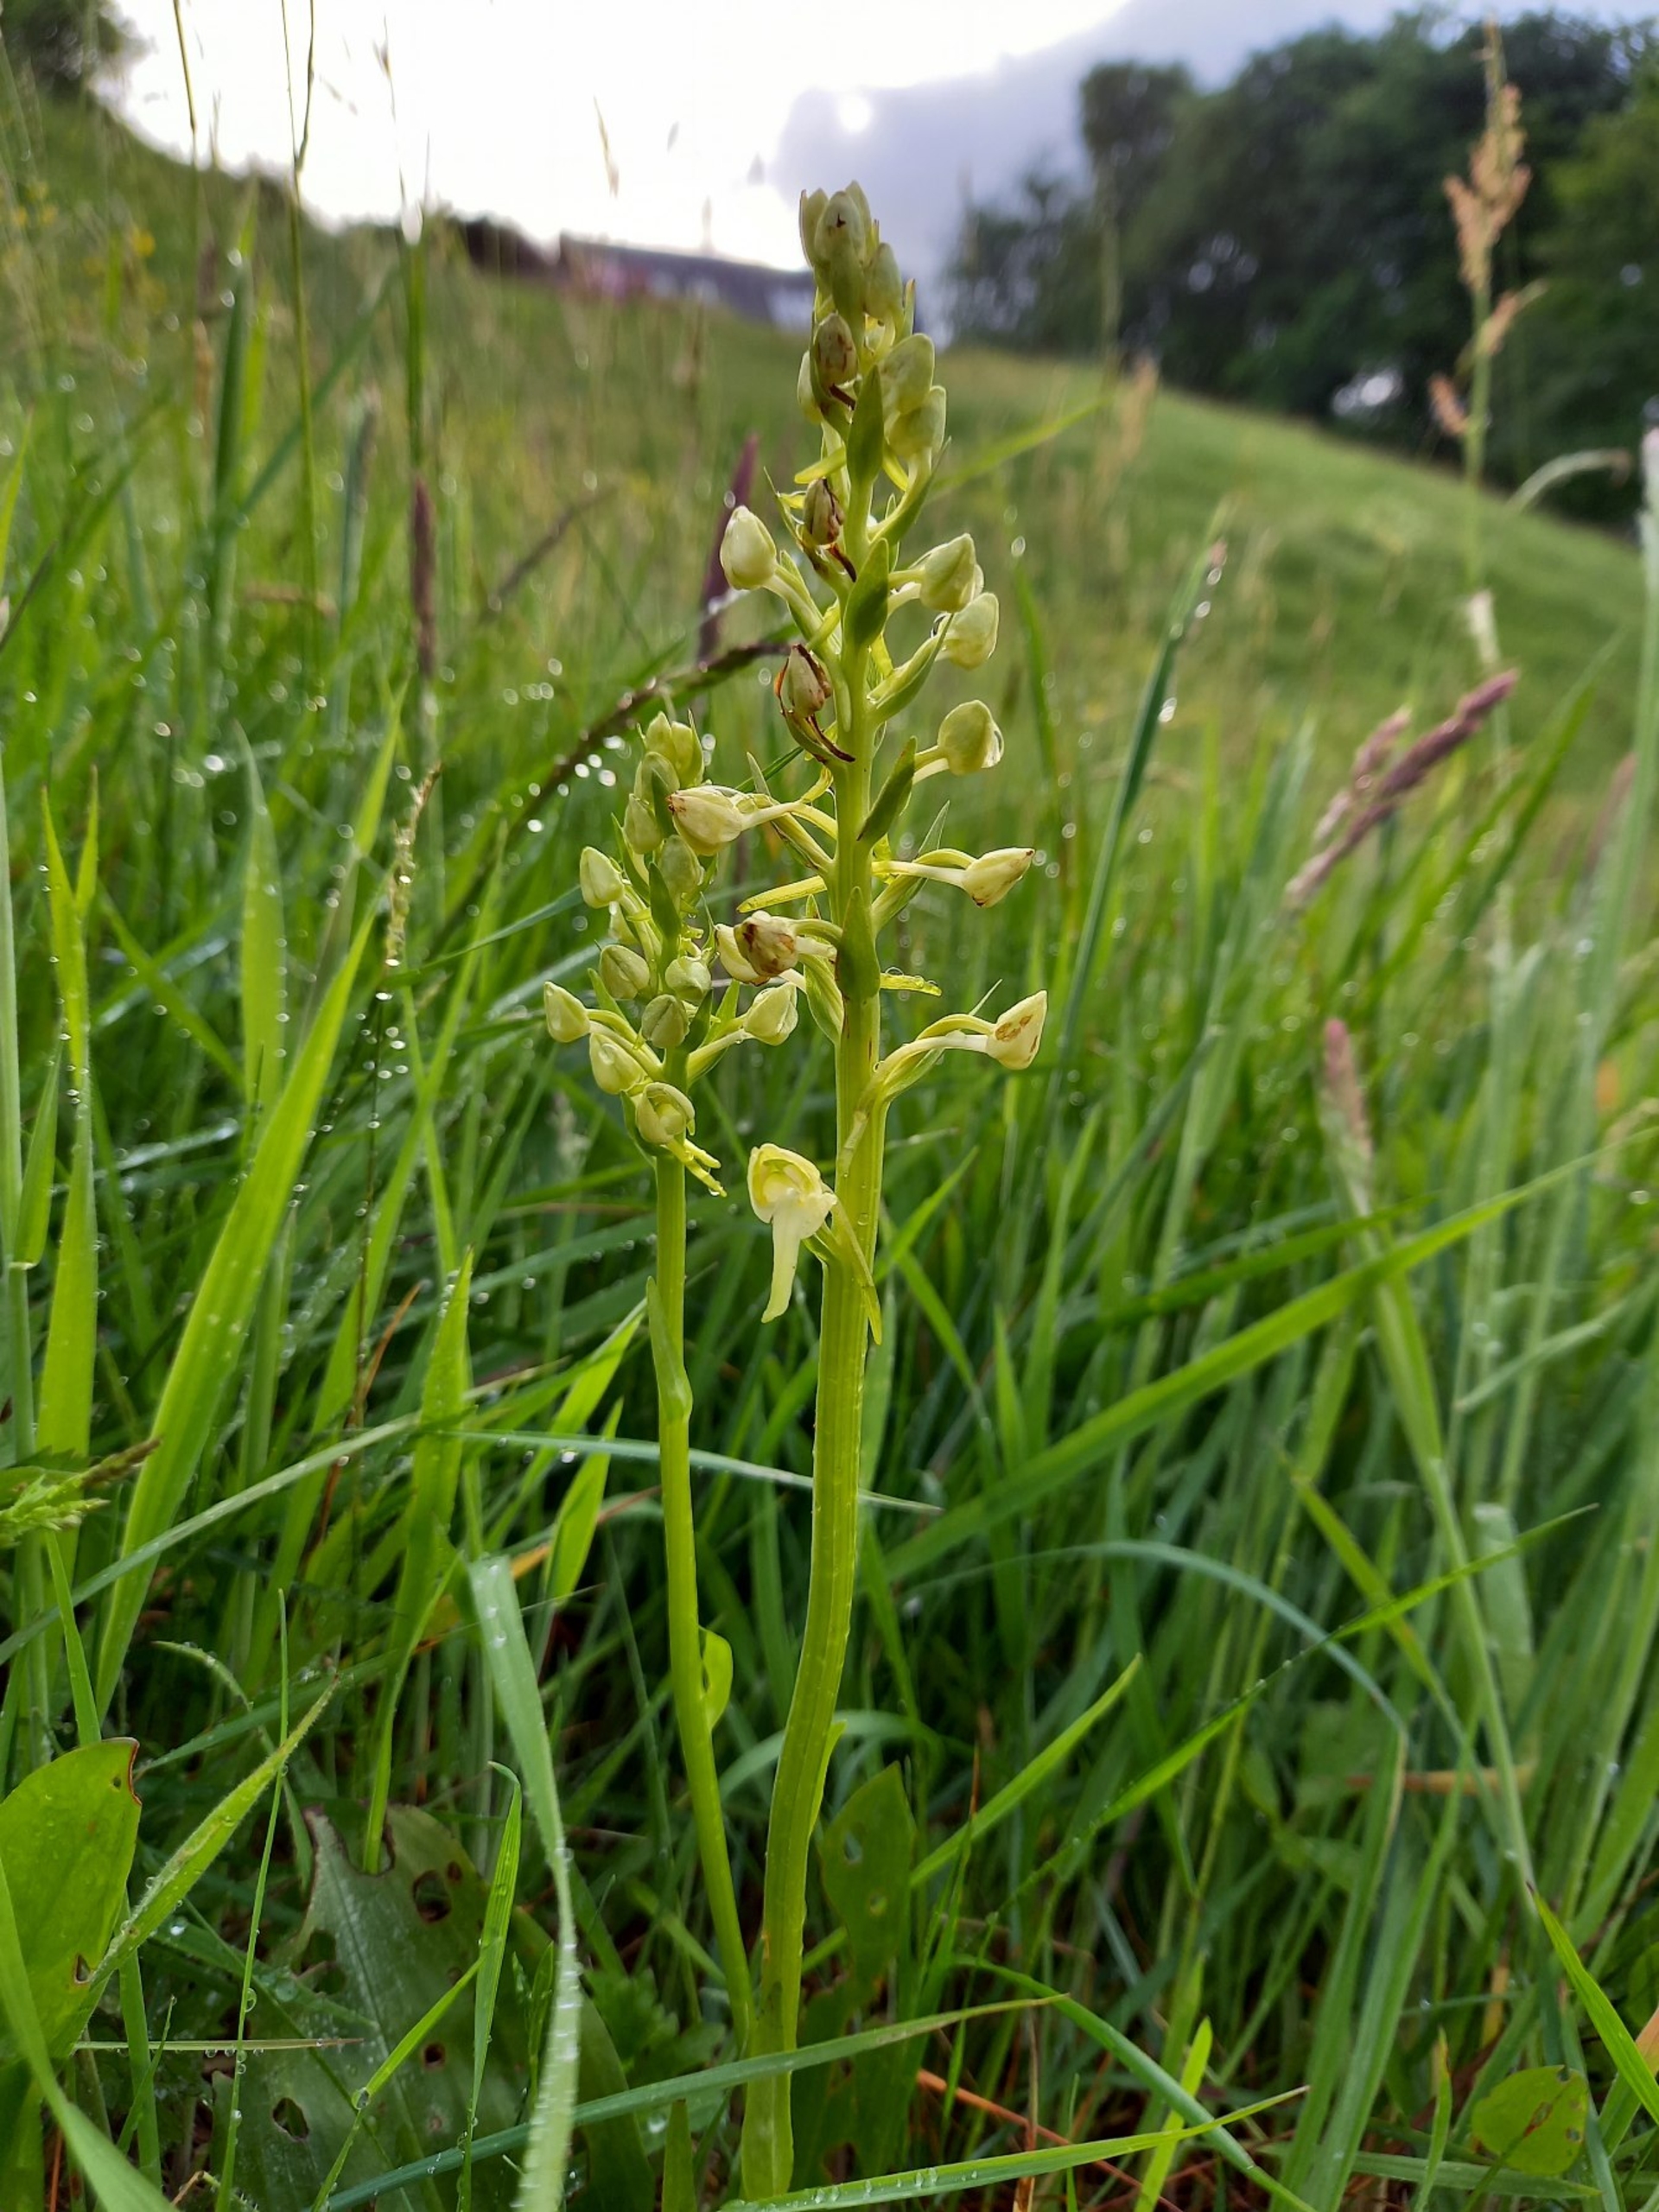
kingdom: Plantae
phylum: Tracheophyta
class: Liliopsida
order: Asparagales
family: Orchidaceae
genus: Platanthera
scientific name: Platanthera chlorantha
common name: Skov-gøgelilje
